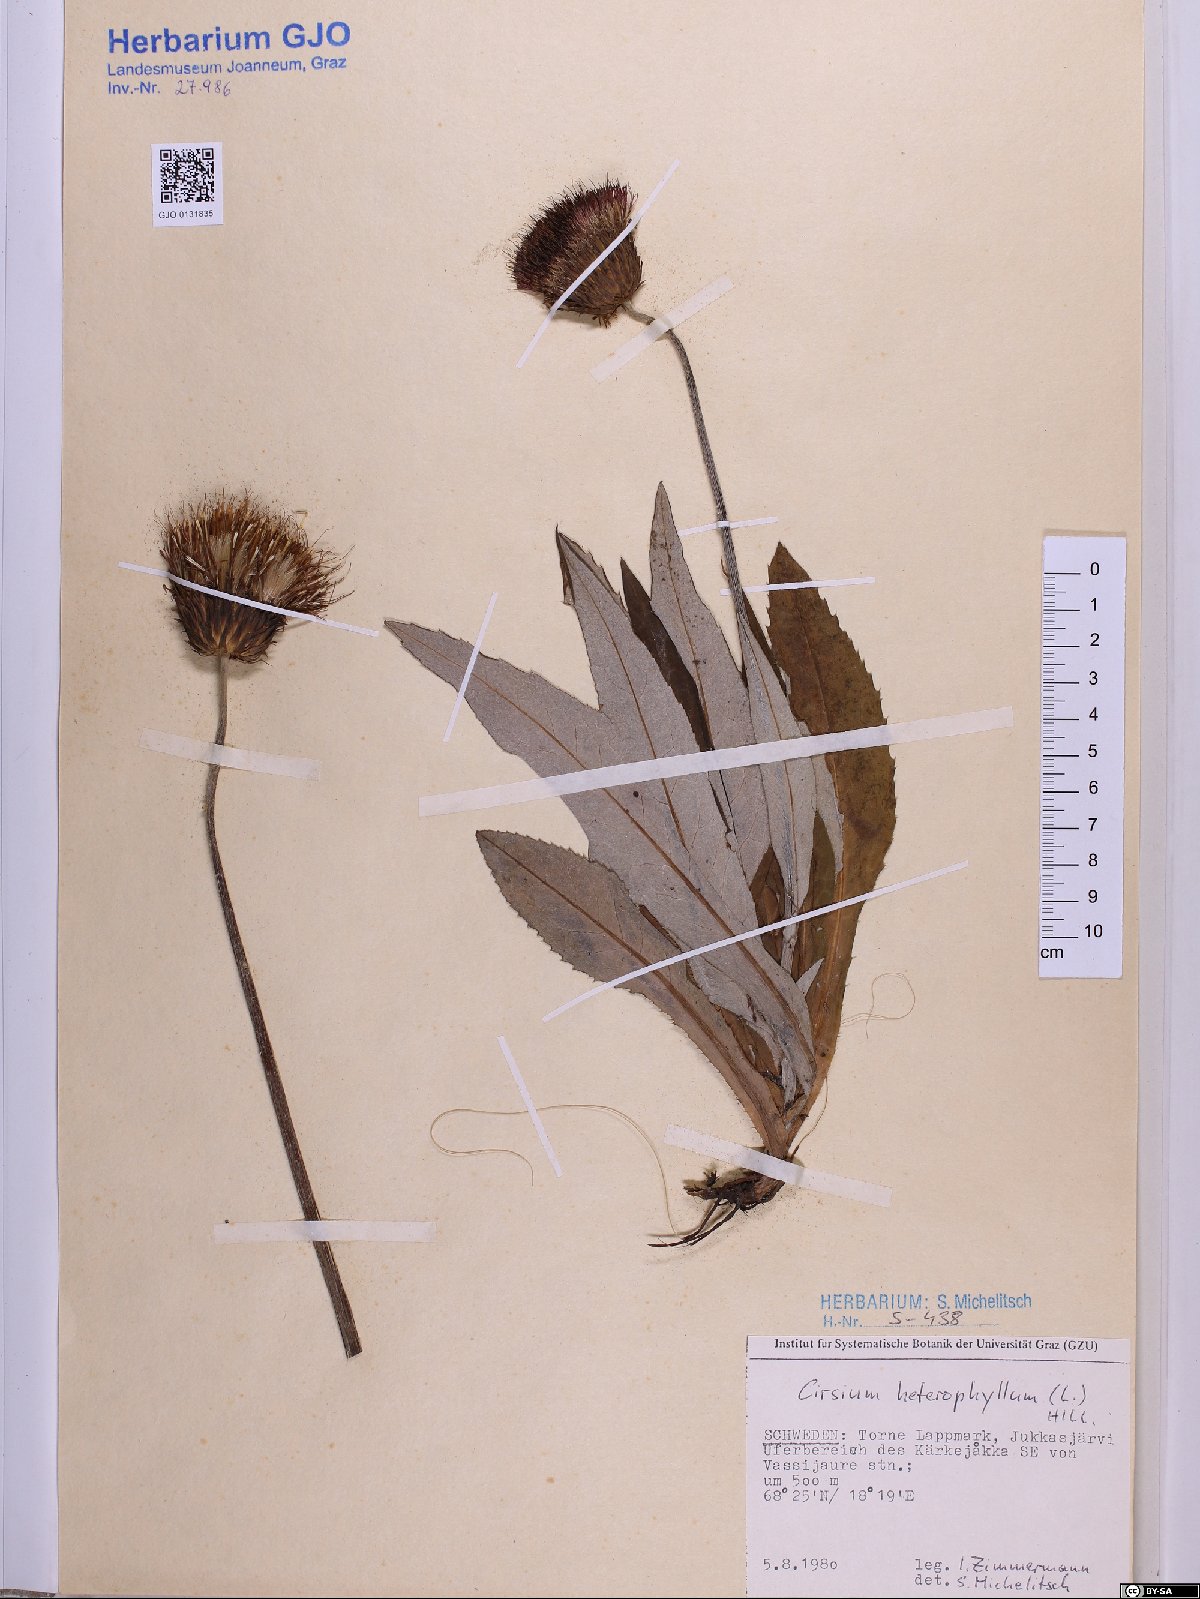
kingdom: Plantae
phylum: Tracheophyta
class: Magnoliopsida
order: Asterales
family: Asteraceae
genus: Cirsium
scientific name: Cirsium heterophyllum
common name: Melancholy thistle
